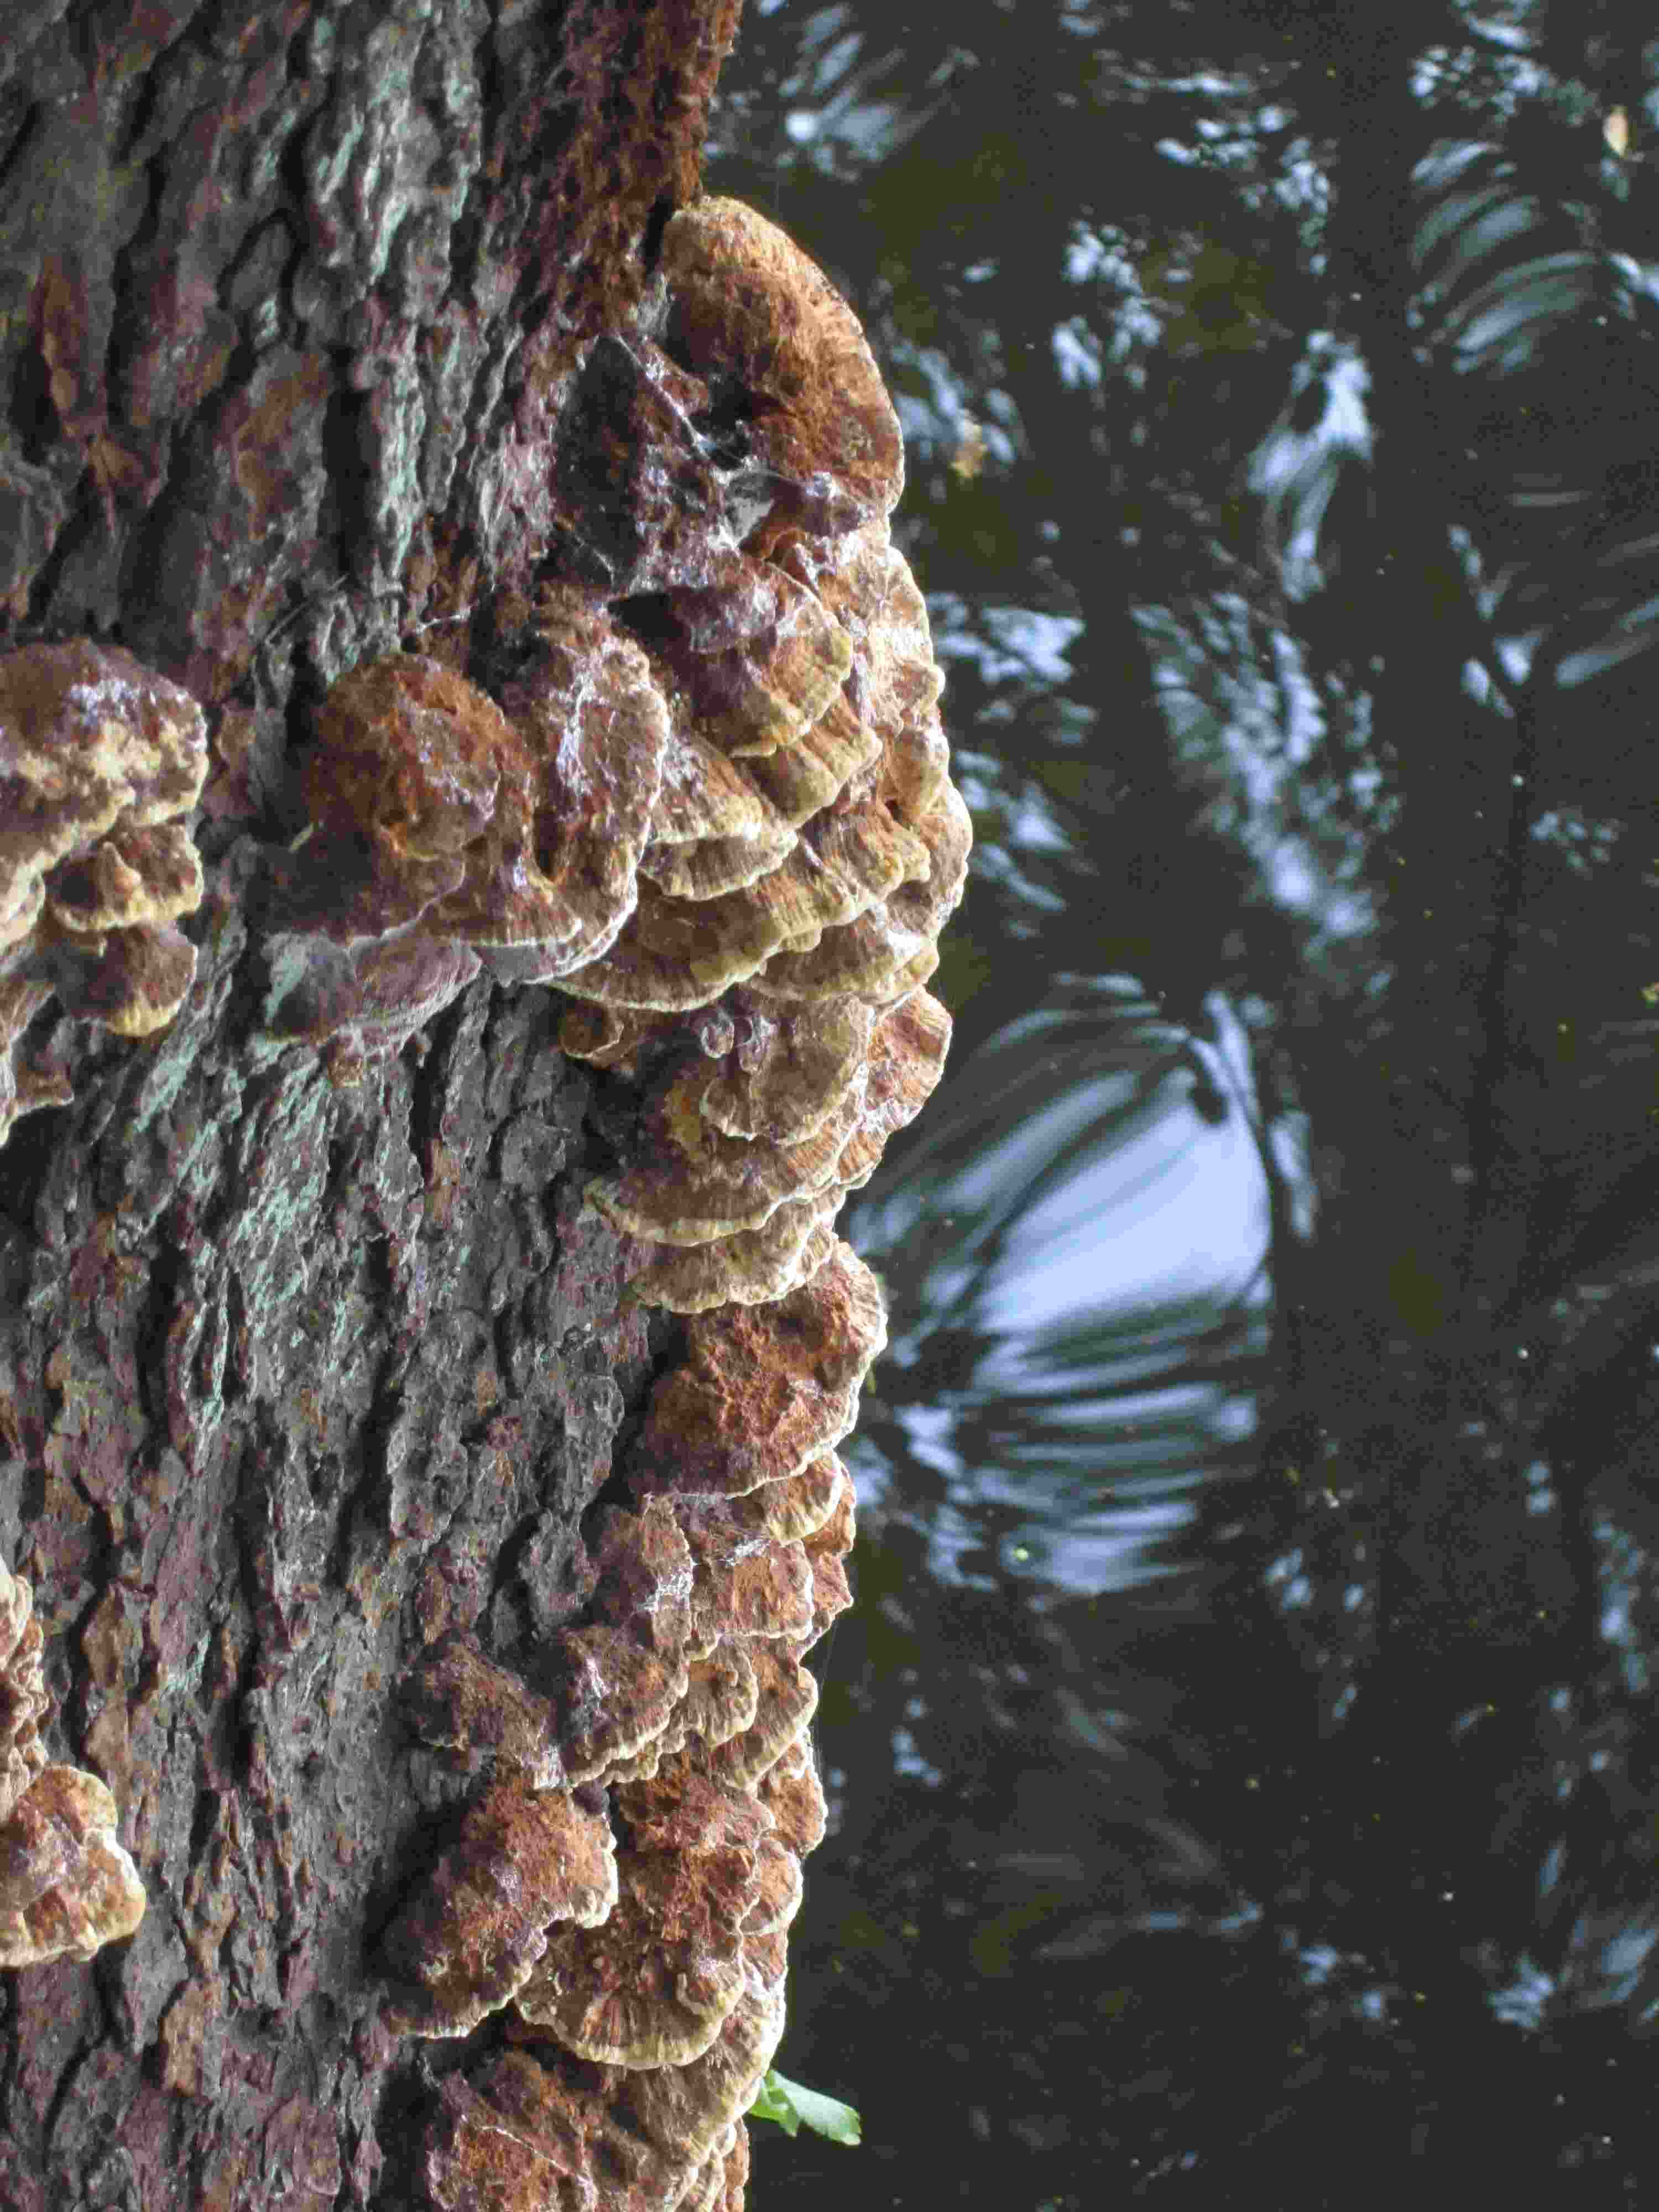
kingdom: Fungi
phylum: Basidiomycota
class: Agaricomycetes
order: Hymenochaetales
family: Hymenochaetaceae
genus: Xanthoporia
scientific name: Xanthoporia radiata
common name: elle-spejlporesvamp
